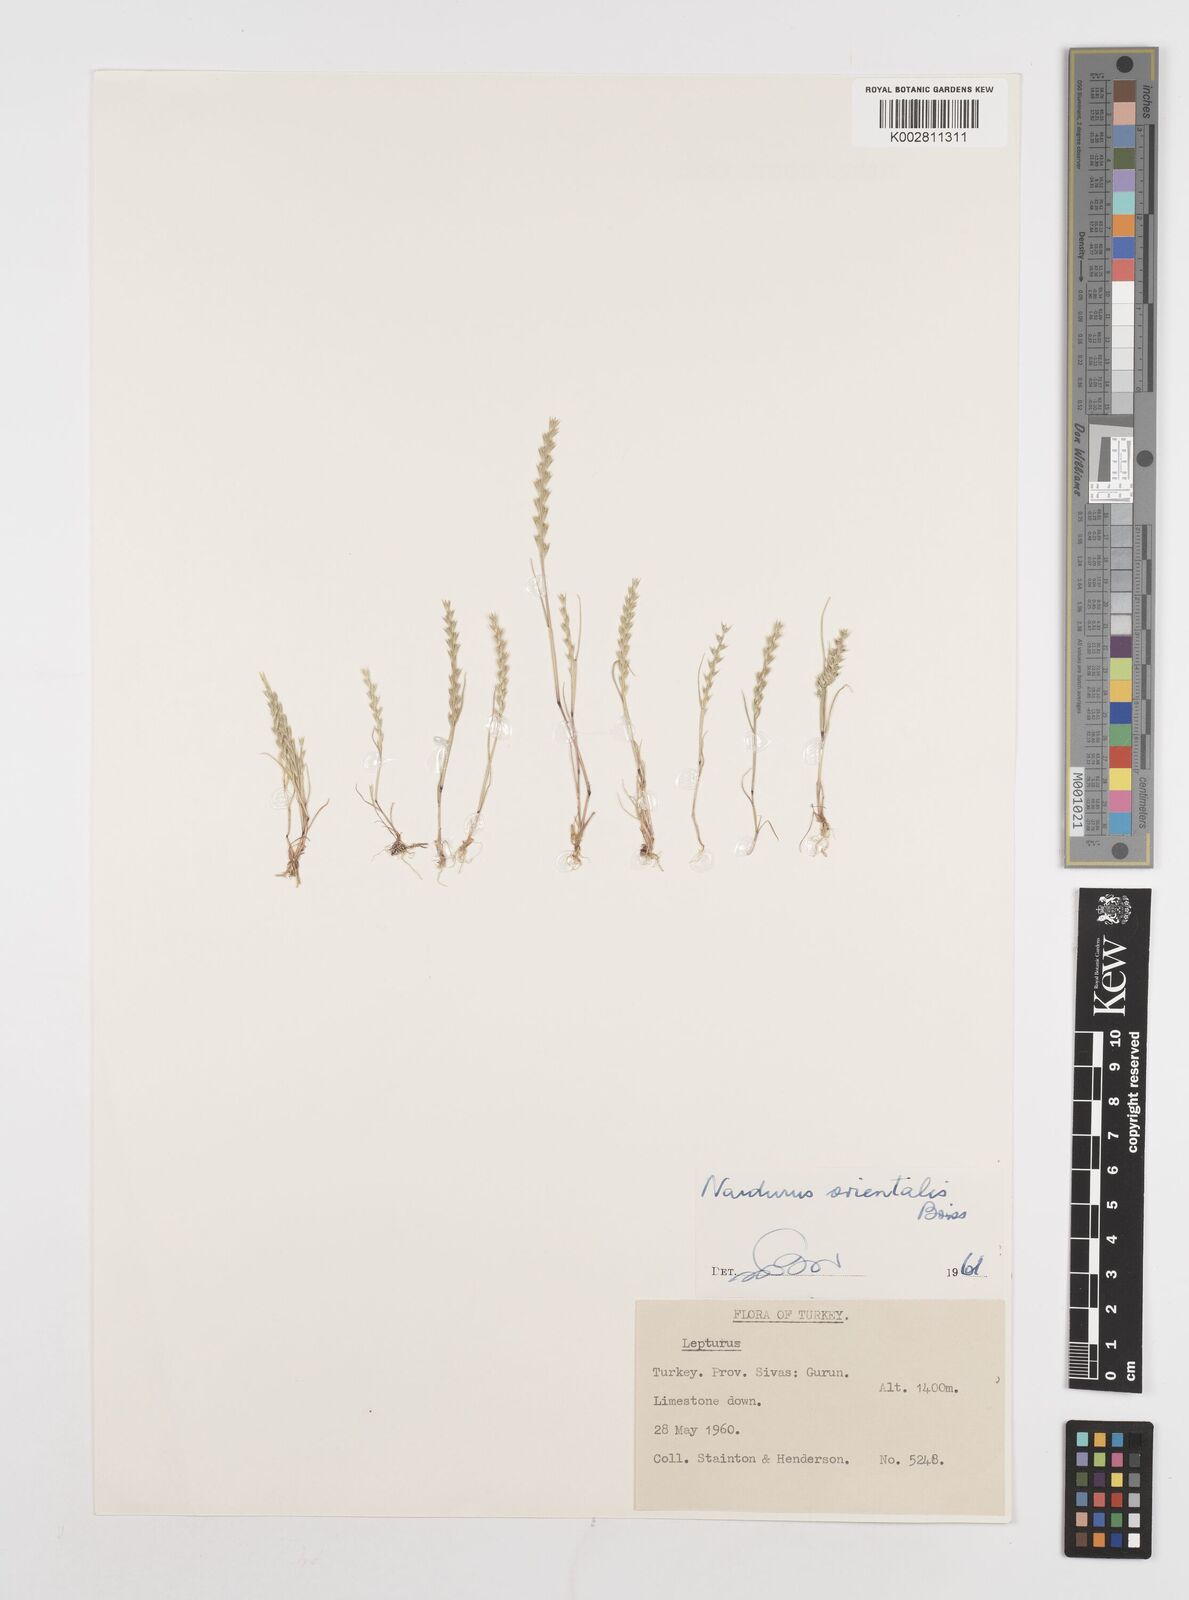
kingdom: Plantae
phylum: Tracheophyta
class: Liliopsida
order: Poales
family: Poaceae
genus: Festuca
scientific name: Festuca orientalis
